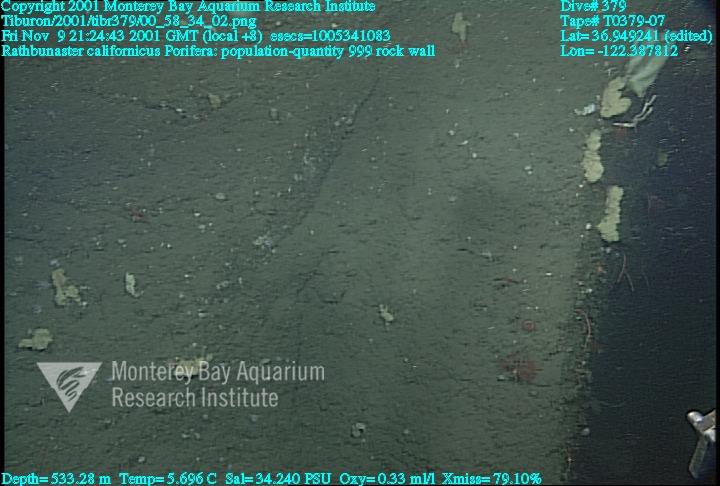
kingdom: Animalia
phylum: Porifera
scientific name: Porifera
